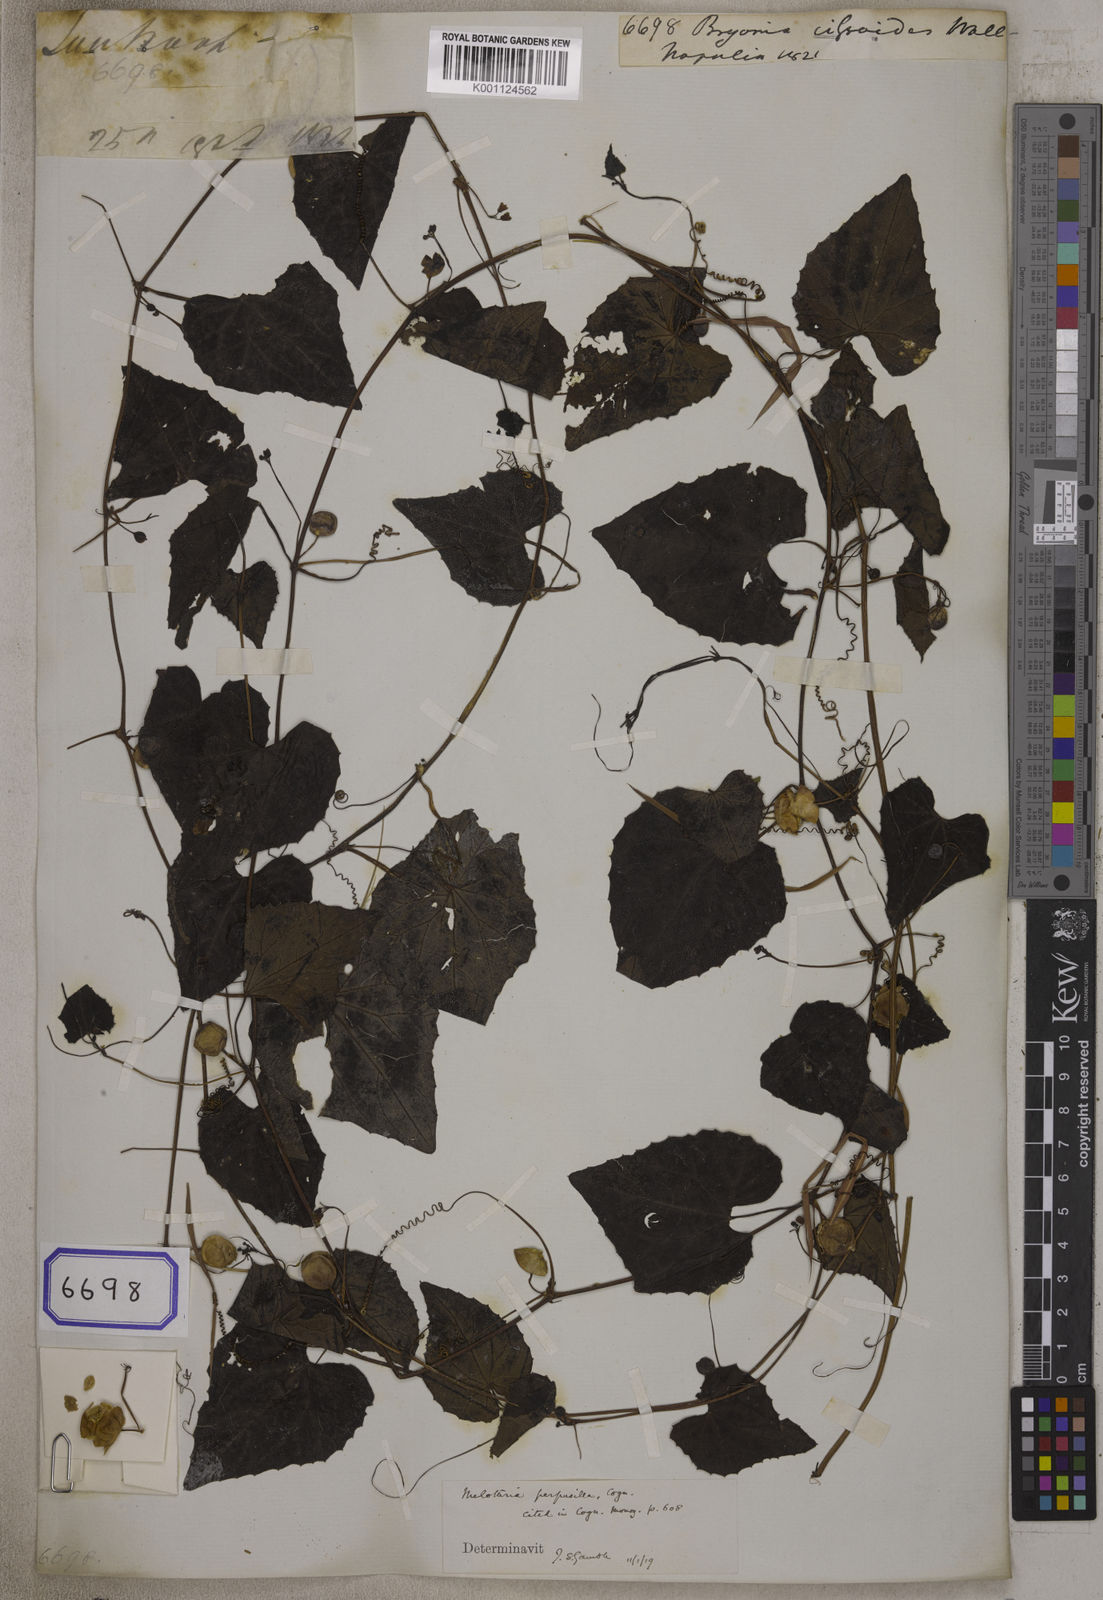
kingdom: Plantae
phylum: Tracheophyta
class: Magnoliopsida
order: Cucurbitales
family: Cucurbitaceae
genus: Zehneria
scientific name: Zehneria bodinieri
